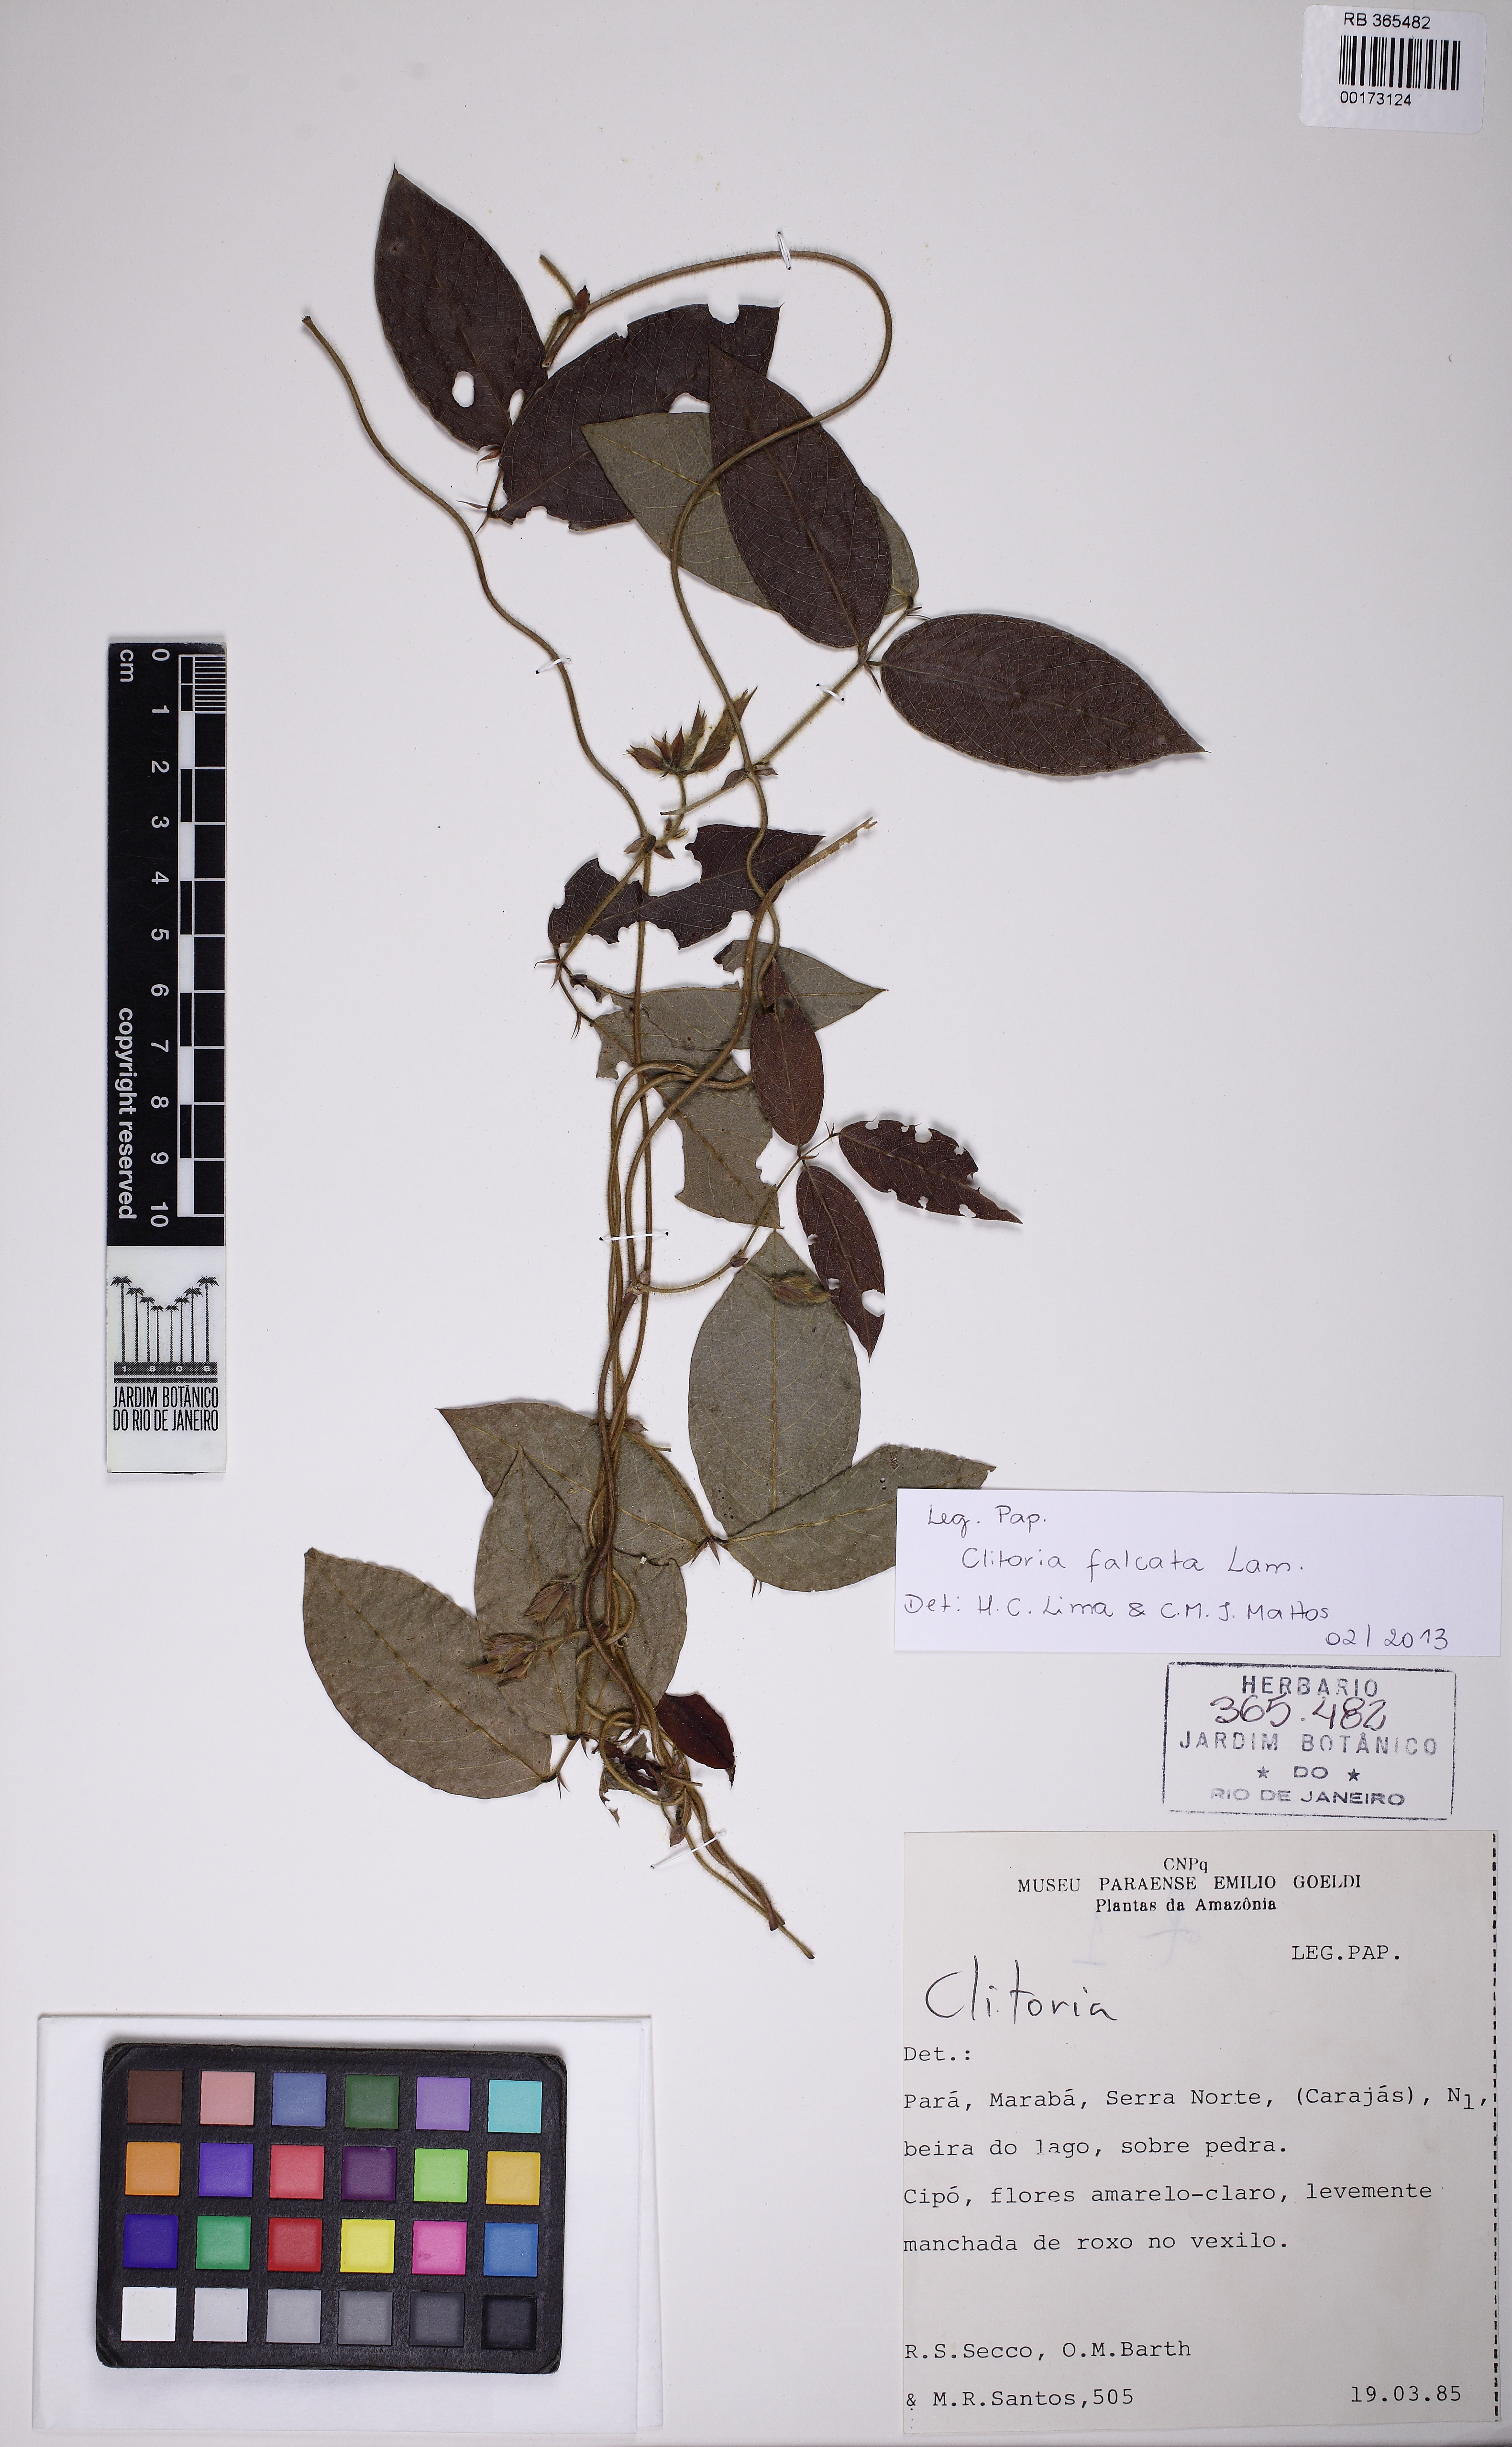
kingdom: Plantae
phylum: Tracheophyta
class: Magnoliopsida
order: Fabales
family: Fabaceae
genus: Clitoria
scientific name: Clitoria falcata
